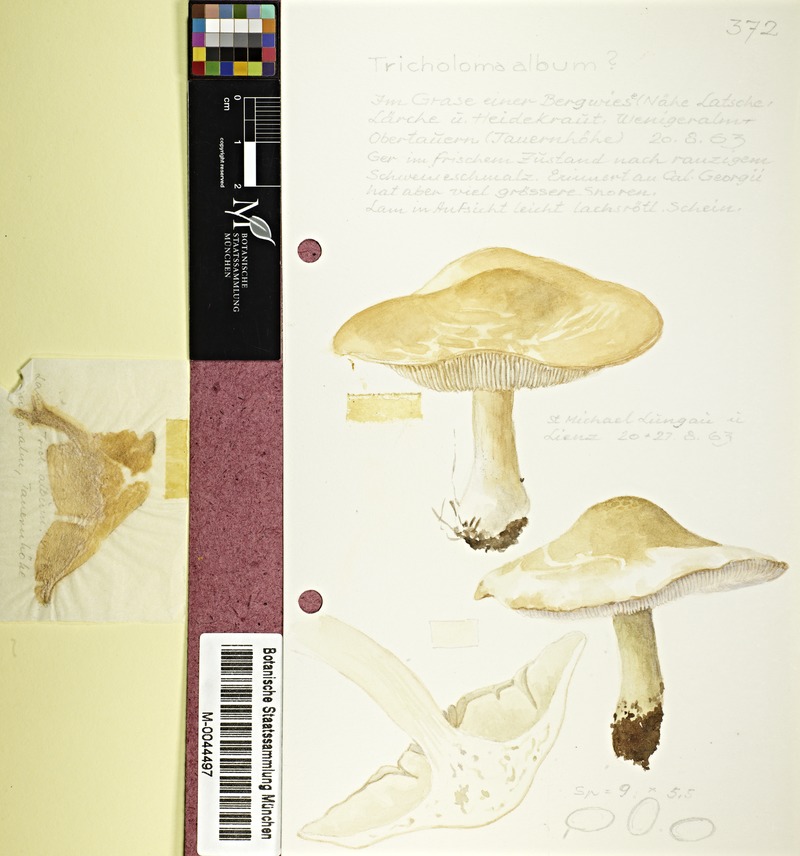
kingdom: Fungi
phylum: Basidiomycota
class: Agaricomycetes
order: Agaricales
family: Tricholomataceae
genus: Tricholoma
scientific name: Tricholoma album
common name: White knight
